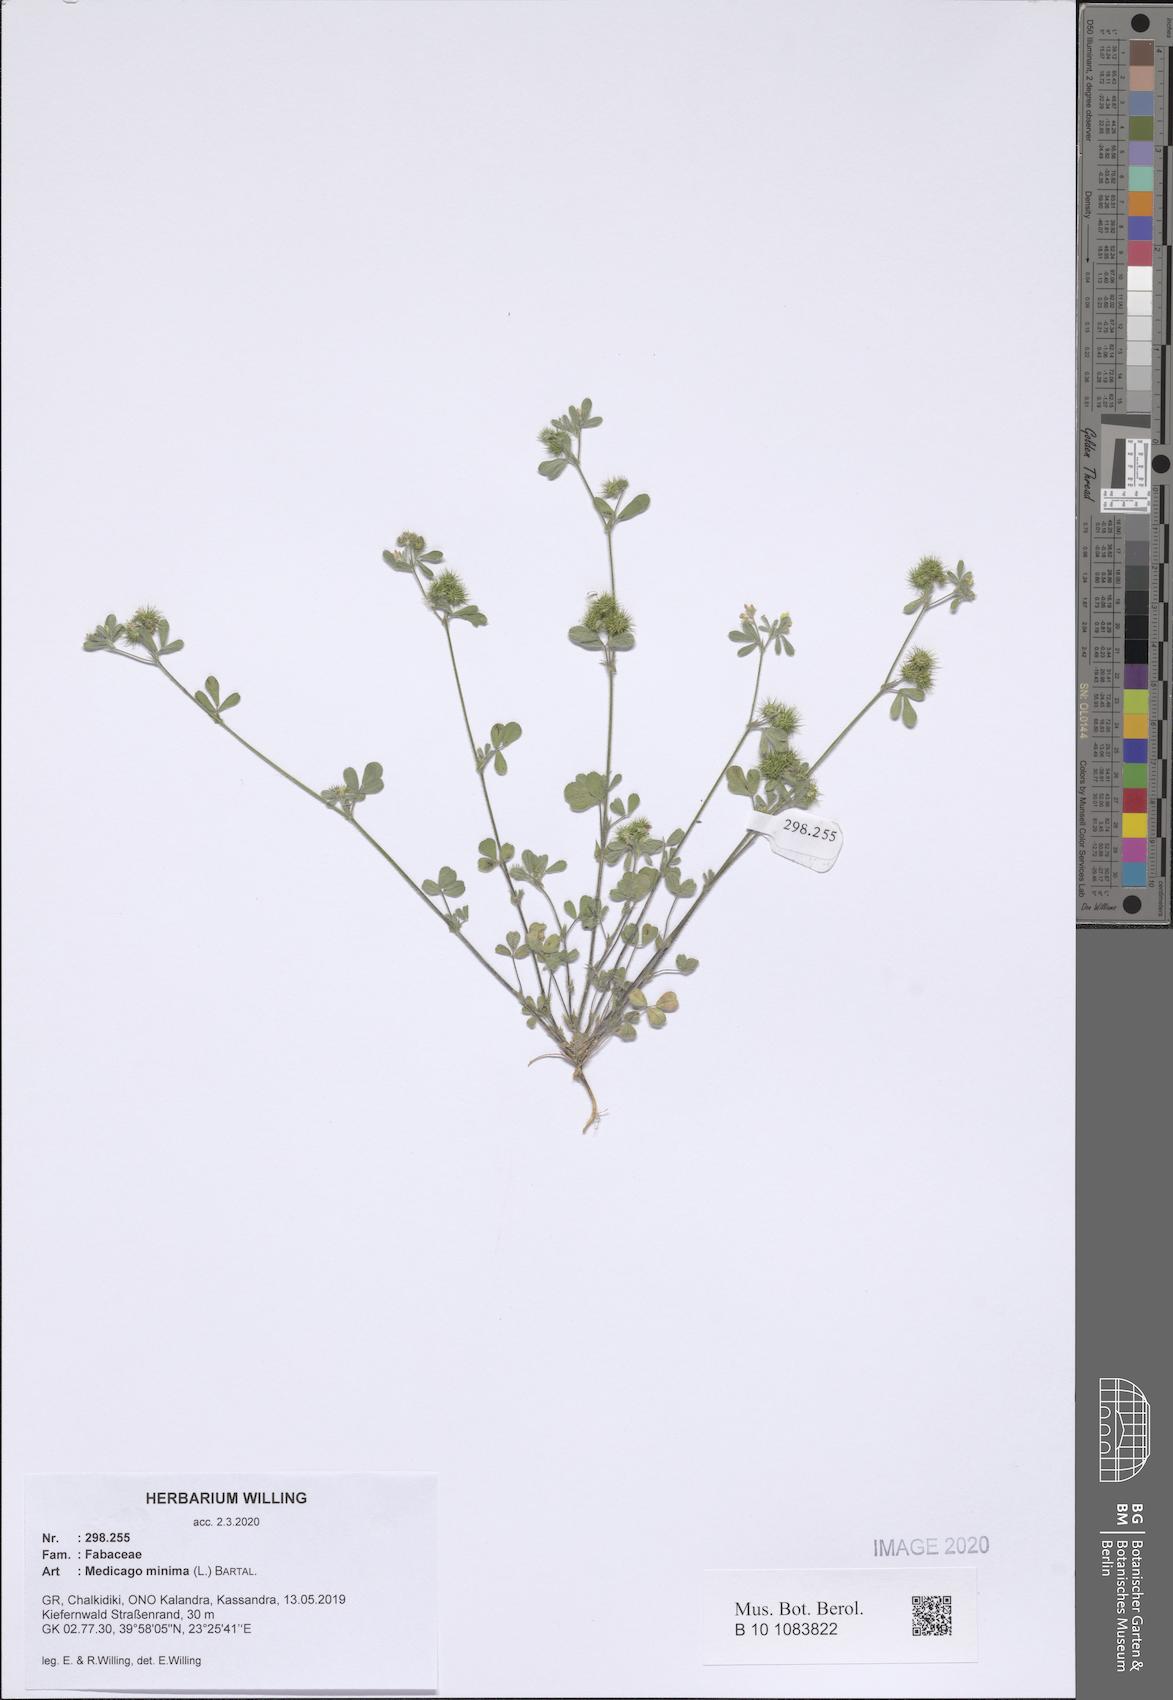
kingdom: Plantae
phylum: Tracheophyta
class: Magnoliopsida
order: Fabales
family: Fabaceae
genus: Medicago
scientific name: Medicago minima
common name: Little bur-clover
